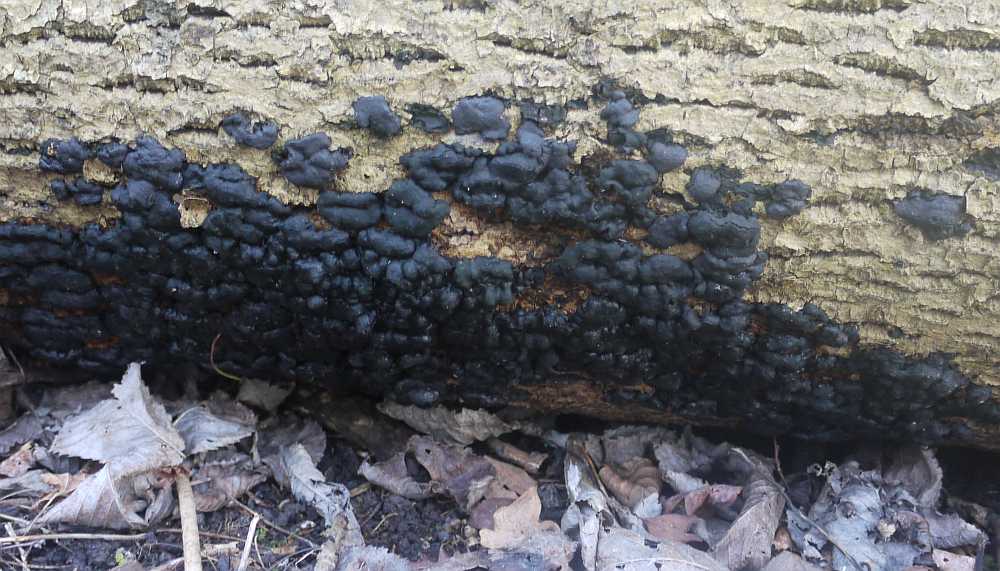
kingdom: Fungi
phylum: Ascomycota
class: Sordariomycetes
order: Xylariales
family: Xylariaceae
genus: Kretzschmaria
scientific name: Kretzschmaria deusta
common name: stor kulsvamp
